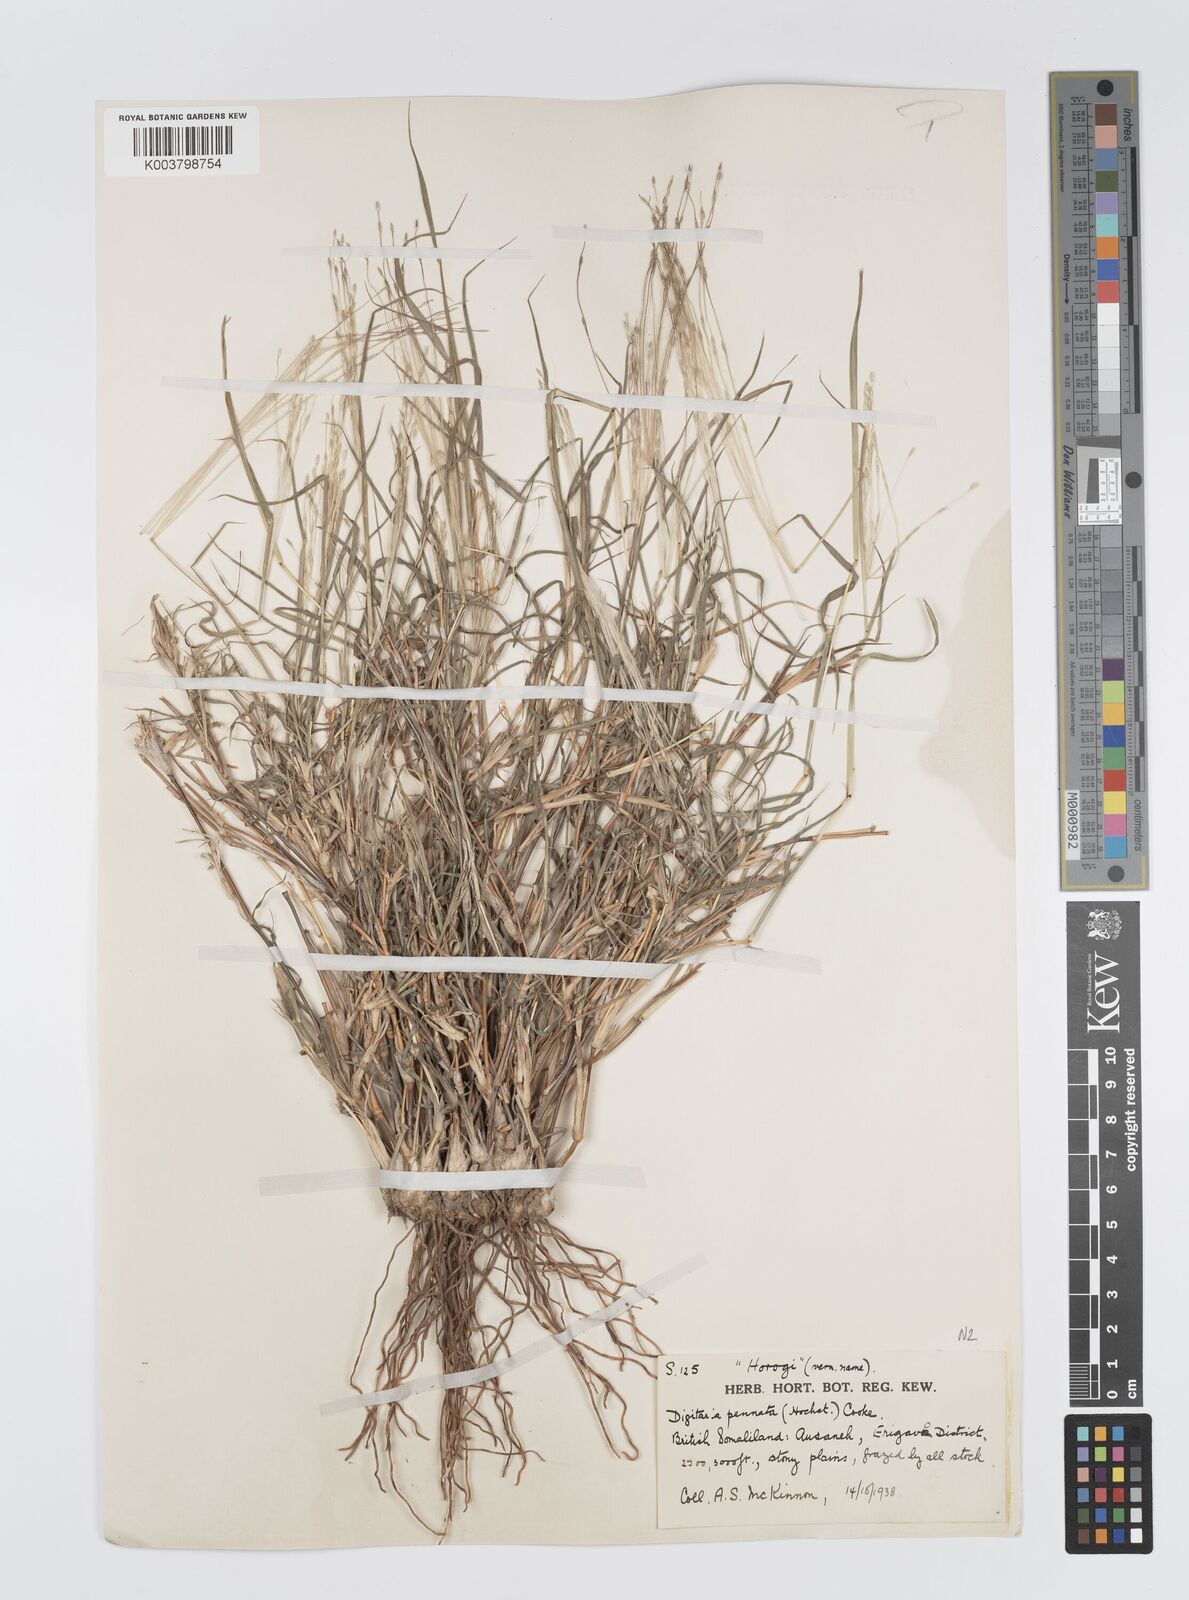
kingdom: Plantae
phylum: Tracheophyta
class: Liliopsida
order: Poales
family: Poaceae
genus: Digitaria
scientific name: Digitaria pennata
